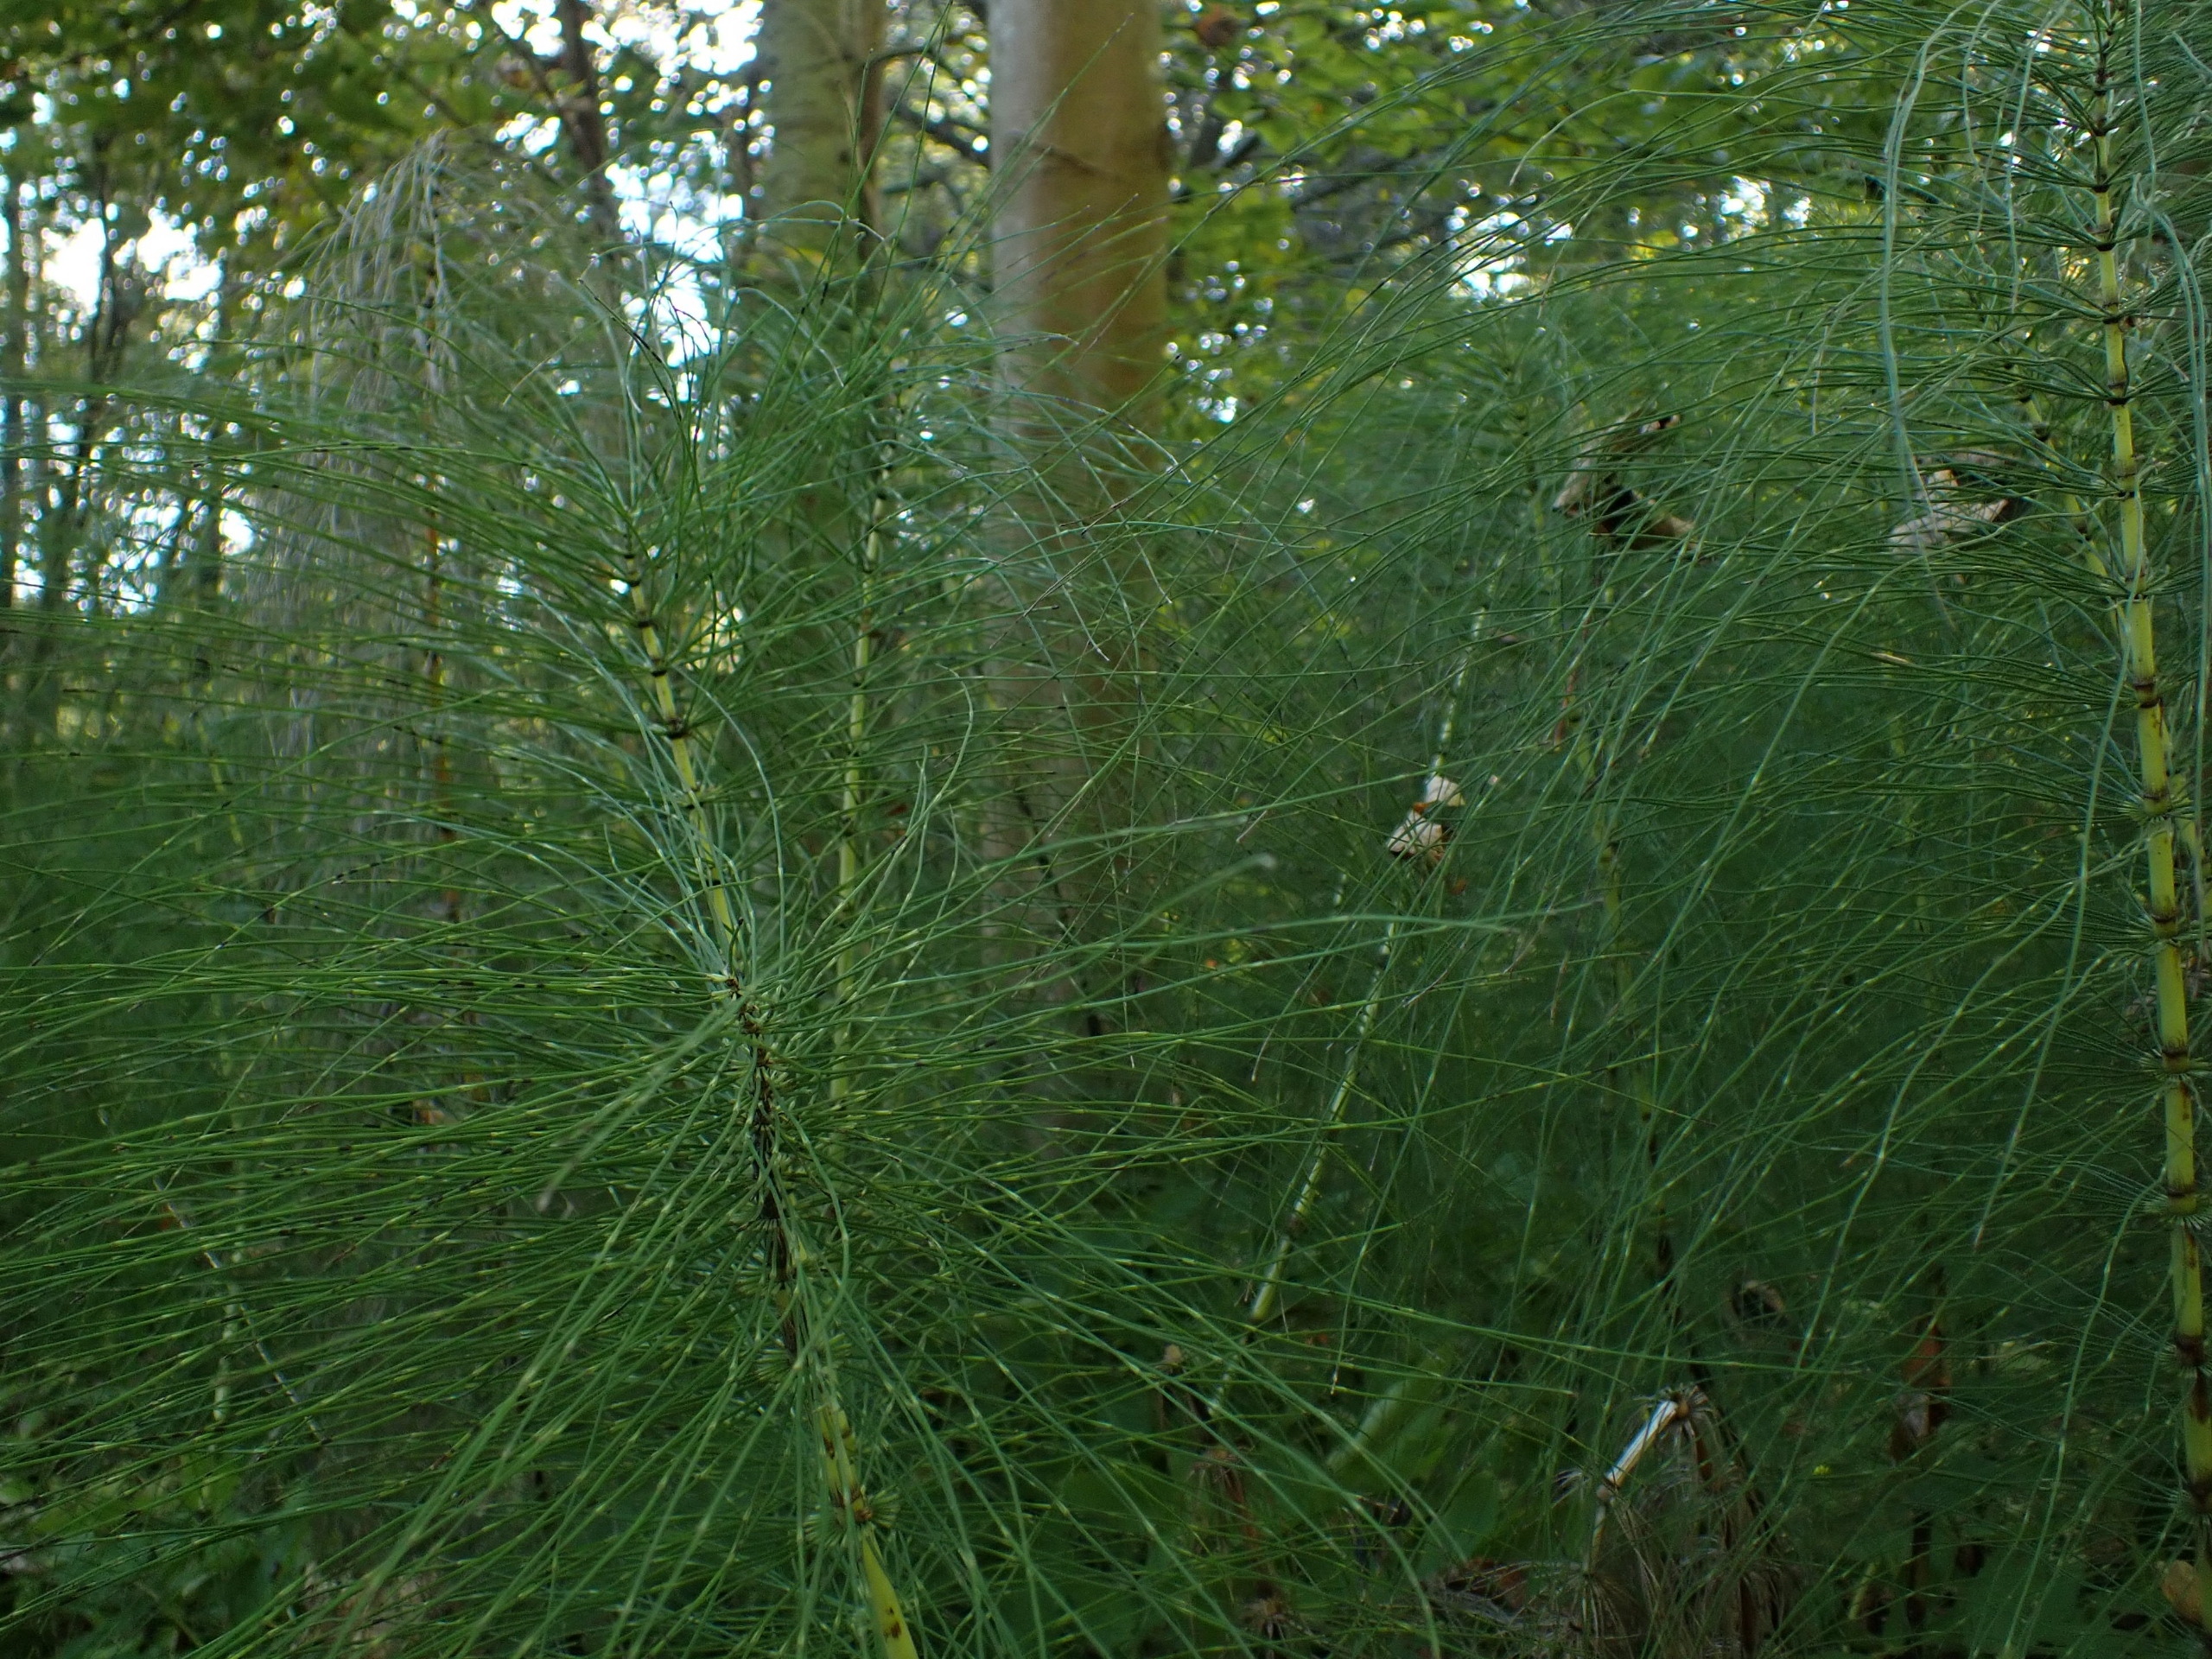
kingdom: Plantae
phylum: Tracheophyta
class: Polypodiopsida
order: Equisetales
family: Equisetaceae
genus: Equisetum
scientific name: Equisetum telmateia
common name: Elfenbens-padderok
